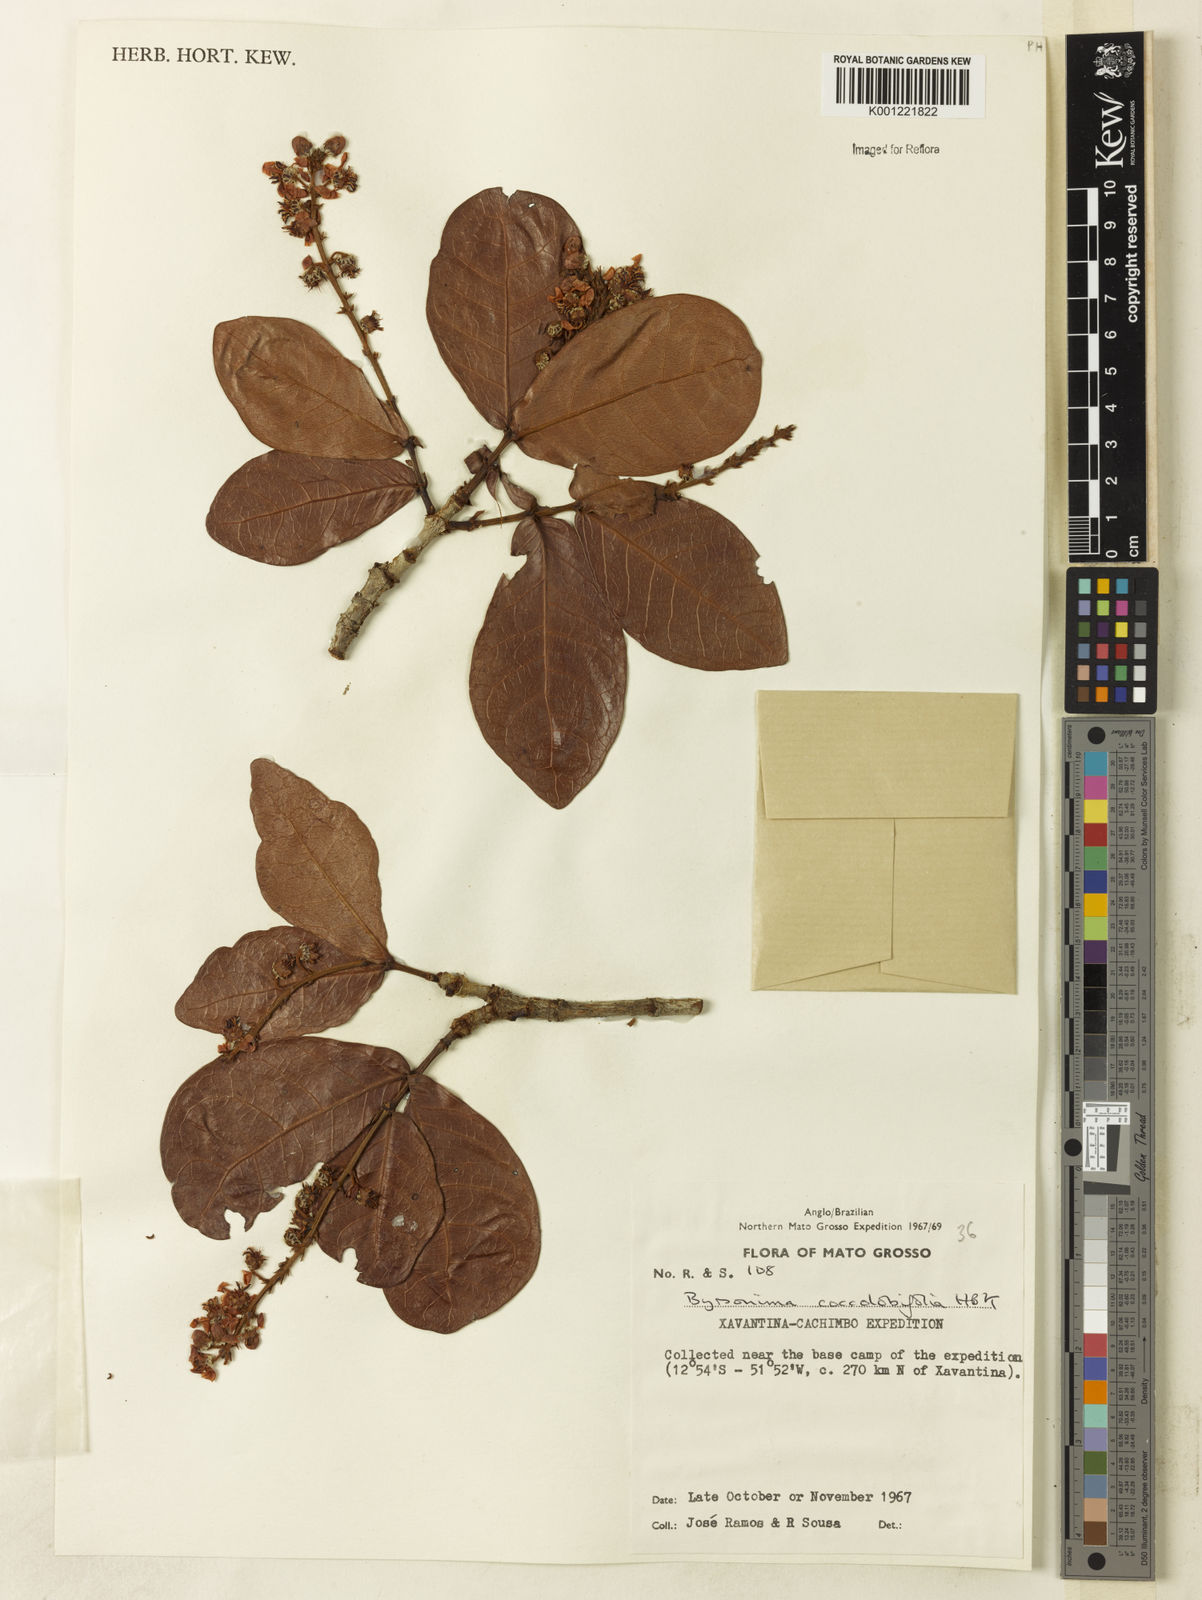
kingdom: Plantae
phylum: Tracheophyta
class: Magnoliopsida
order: Malpighiales
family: Malpighiaceae
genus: Byrsonima
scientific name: Byrsonima coccolobifolia
